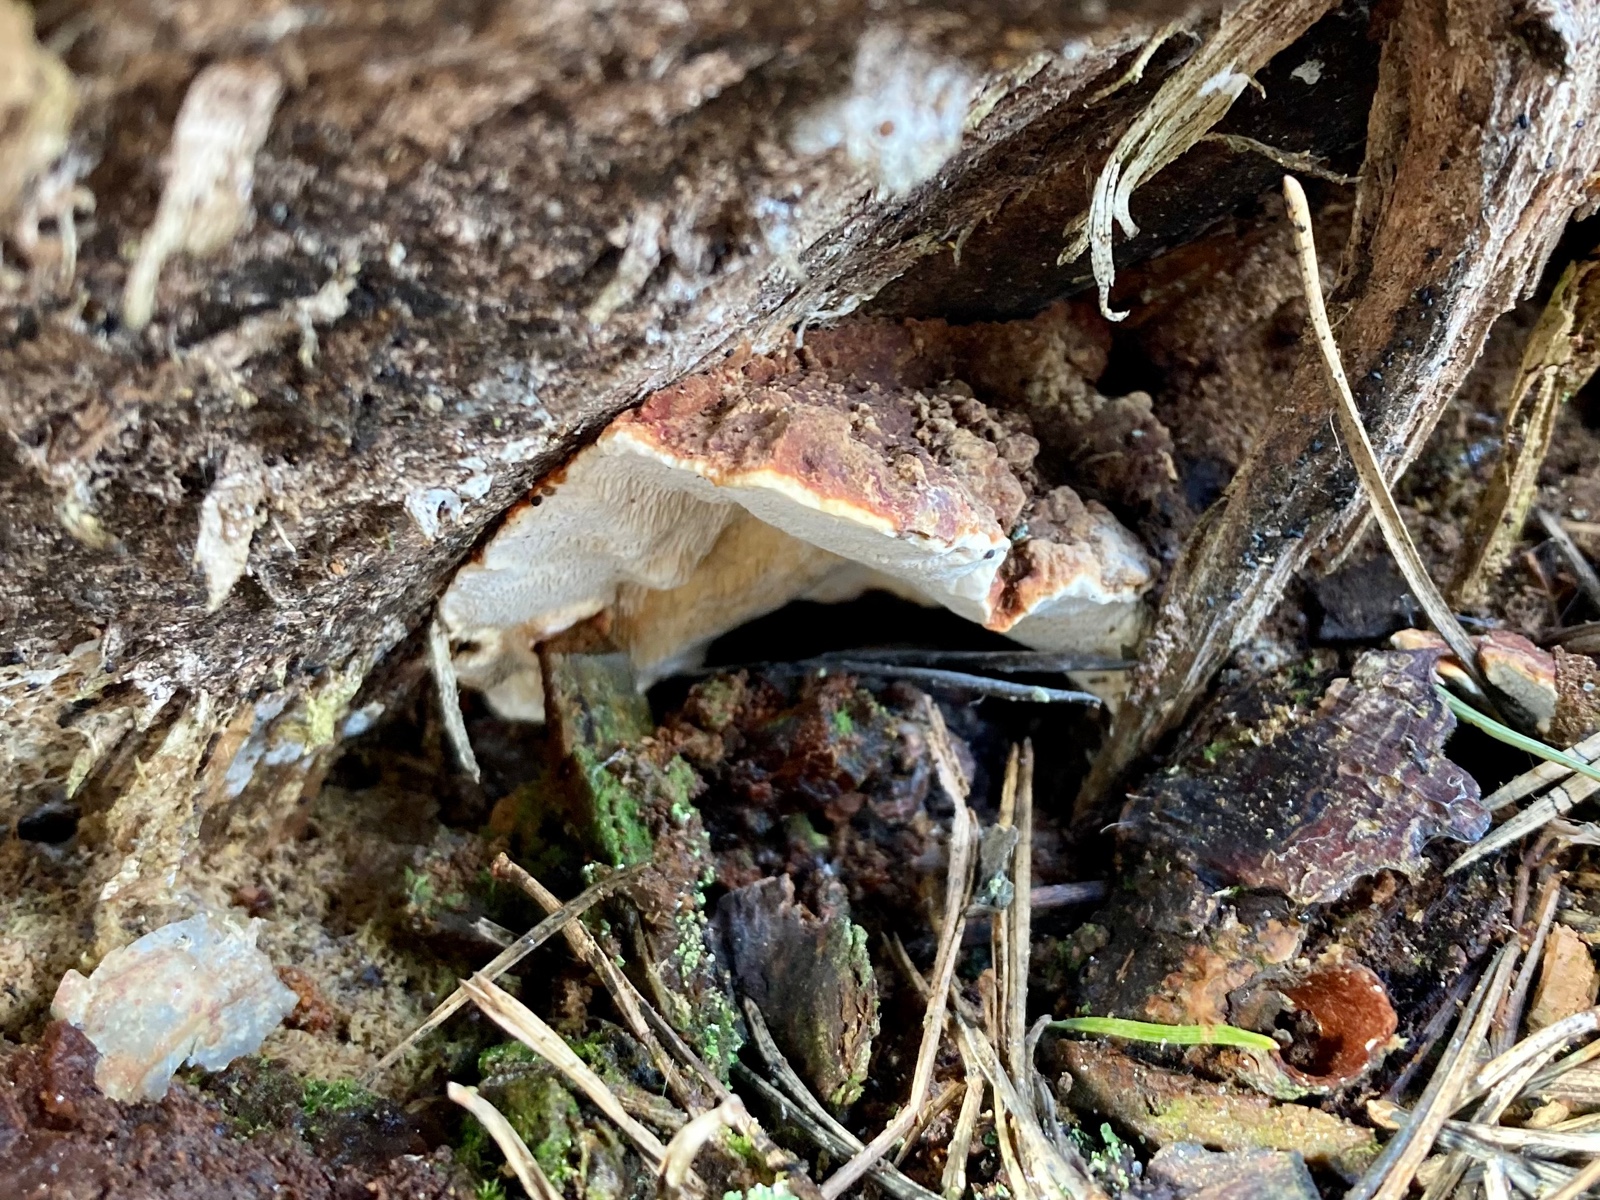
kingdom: Fungi
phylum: Basidiomycota
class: Agaricomycetes
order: Russulales
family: Bondarzewiaceae
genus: Heterobasidion
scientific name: Heterobasidion annosum
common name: almindelig rodfordærver
